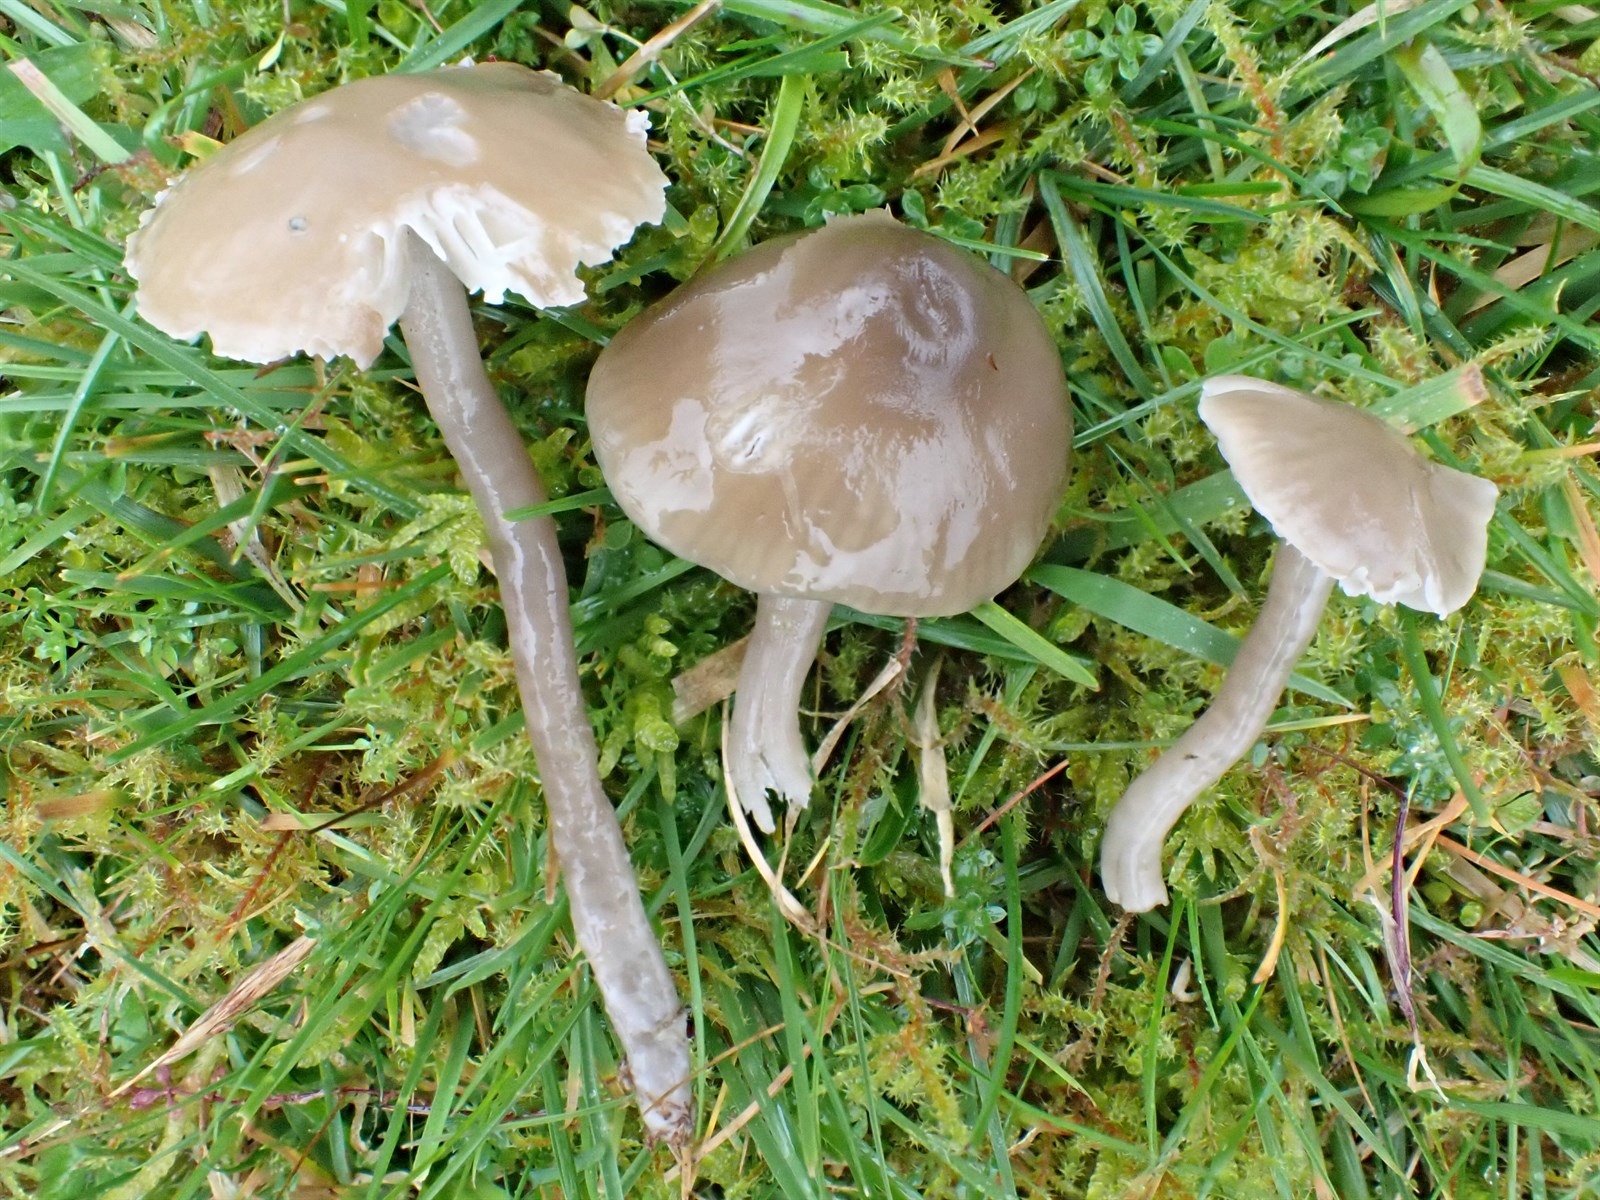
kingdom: Fungi
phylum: Basidiomycota
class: Agaricomycetes
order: Agaricales
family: Hygrophoraceae
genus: Gliophorus
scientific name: Gliophorus irrigatus
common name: Slimy waxcap
